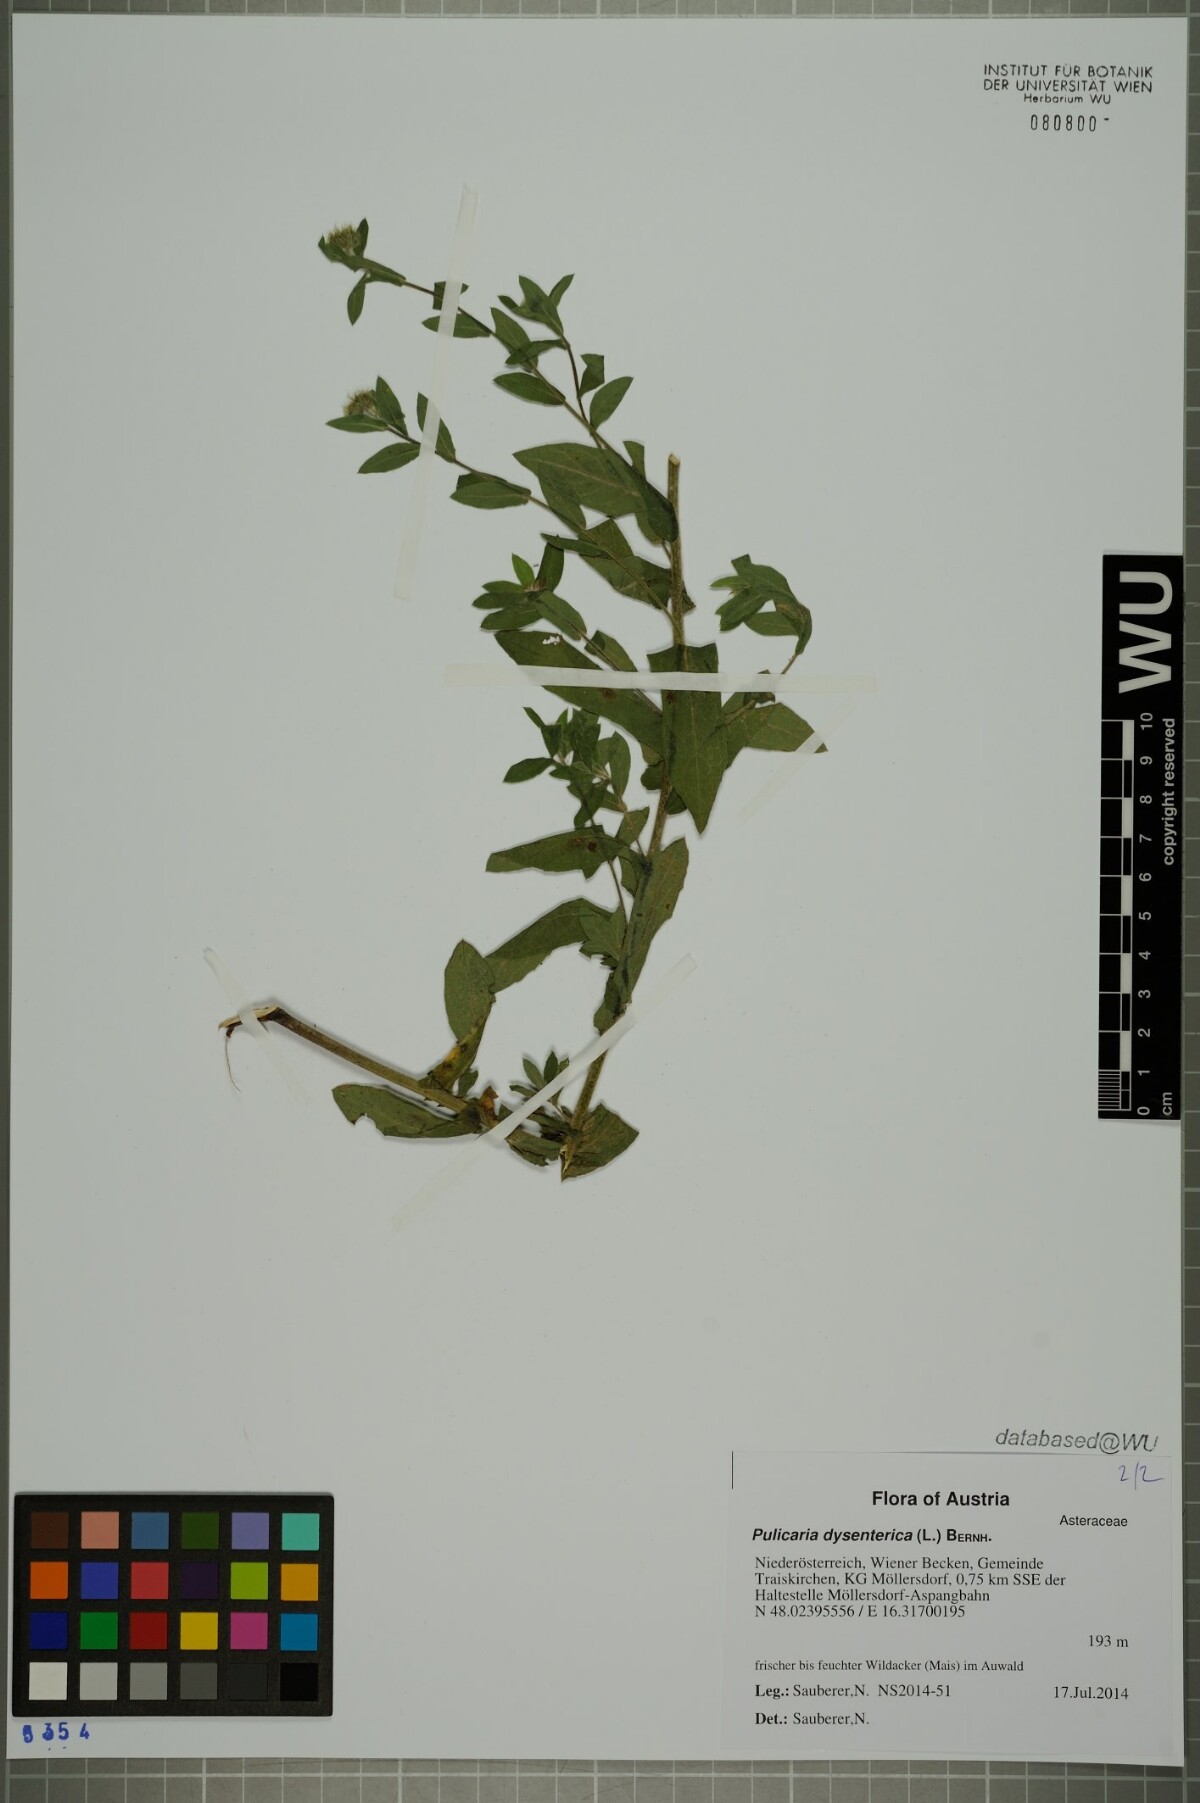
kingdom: Plantae
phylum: Tracheophyta
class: Magnoliopsida
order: Asterales
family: Asteraceae
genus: Pulicaria
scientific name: Pulicaria dysenterica
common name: Common fleabane
